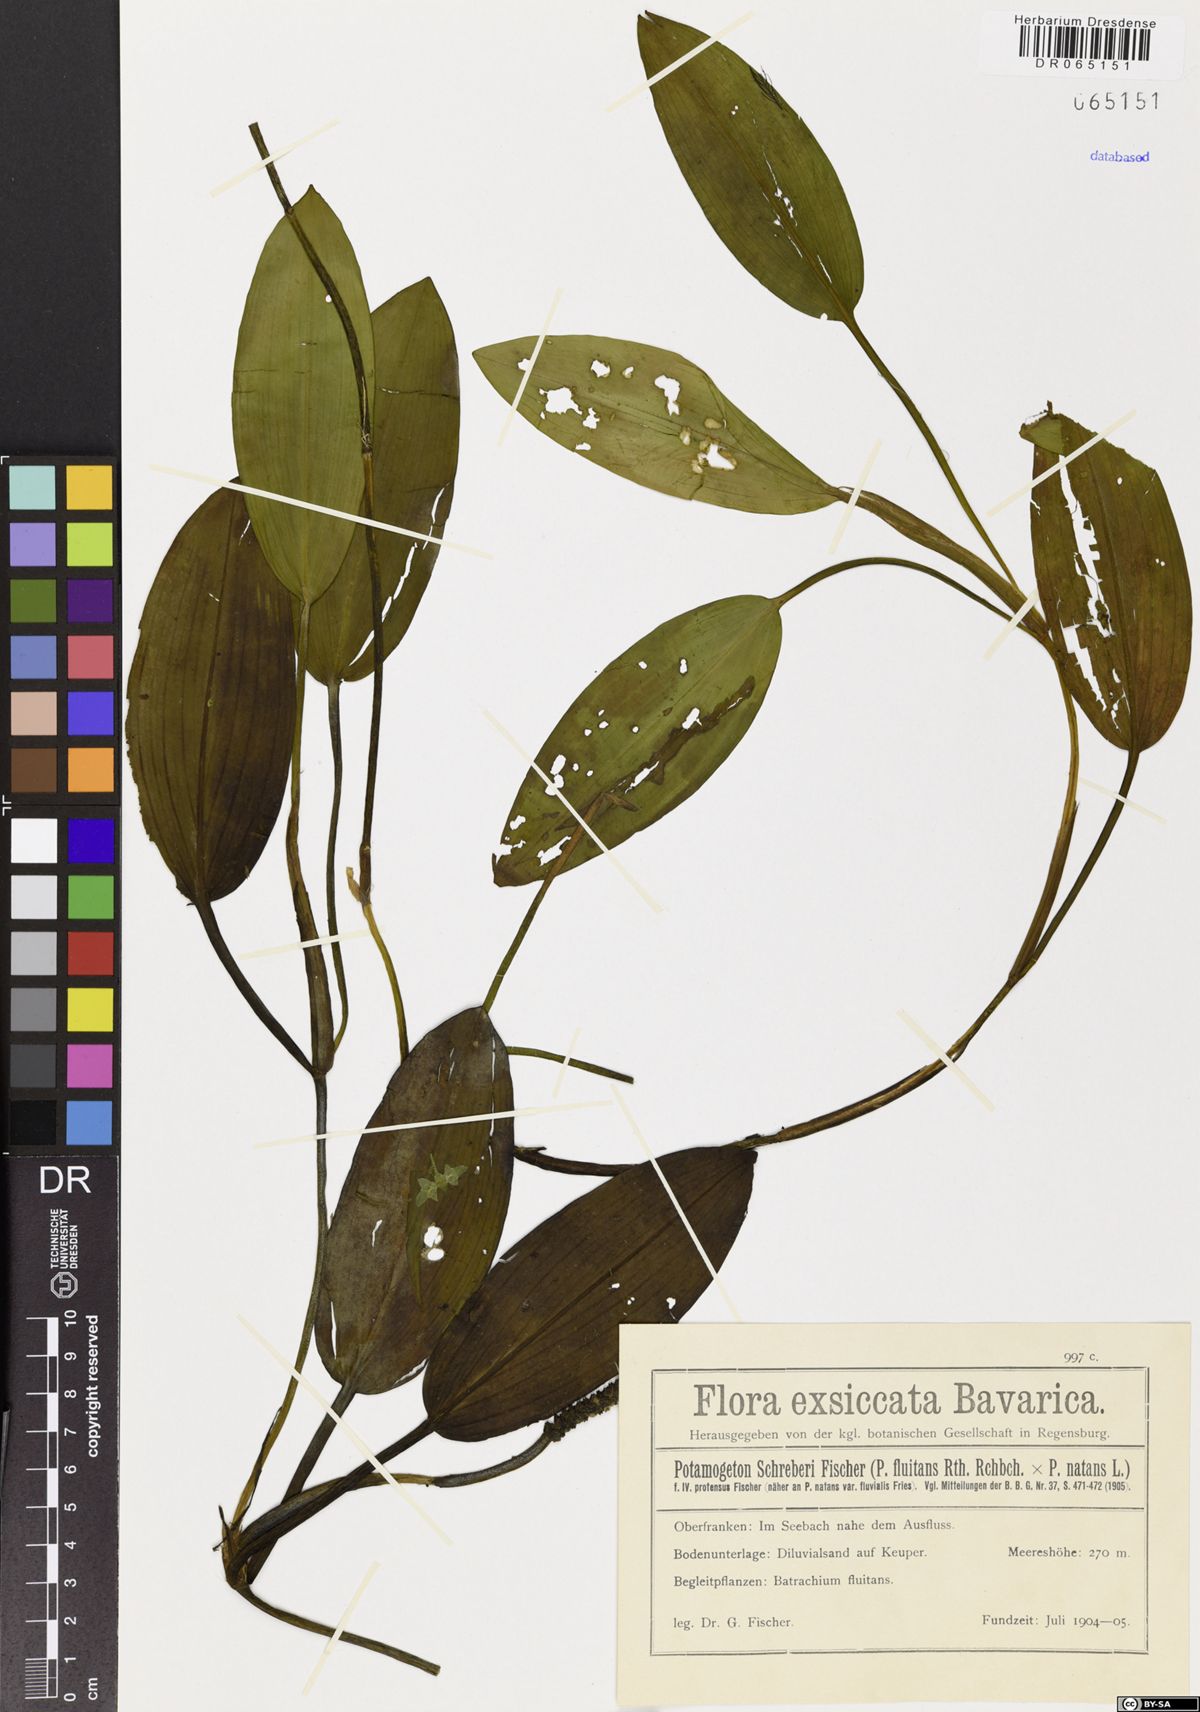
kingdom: Plantae
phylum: Tracheophyta
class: Liliopsida
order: Alismatales
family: Potamogetonaceae
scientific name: Potamogetonaceae
